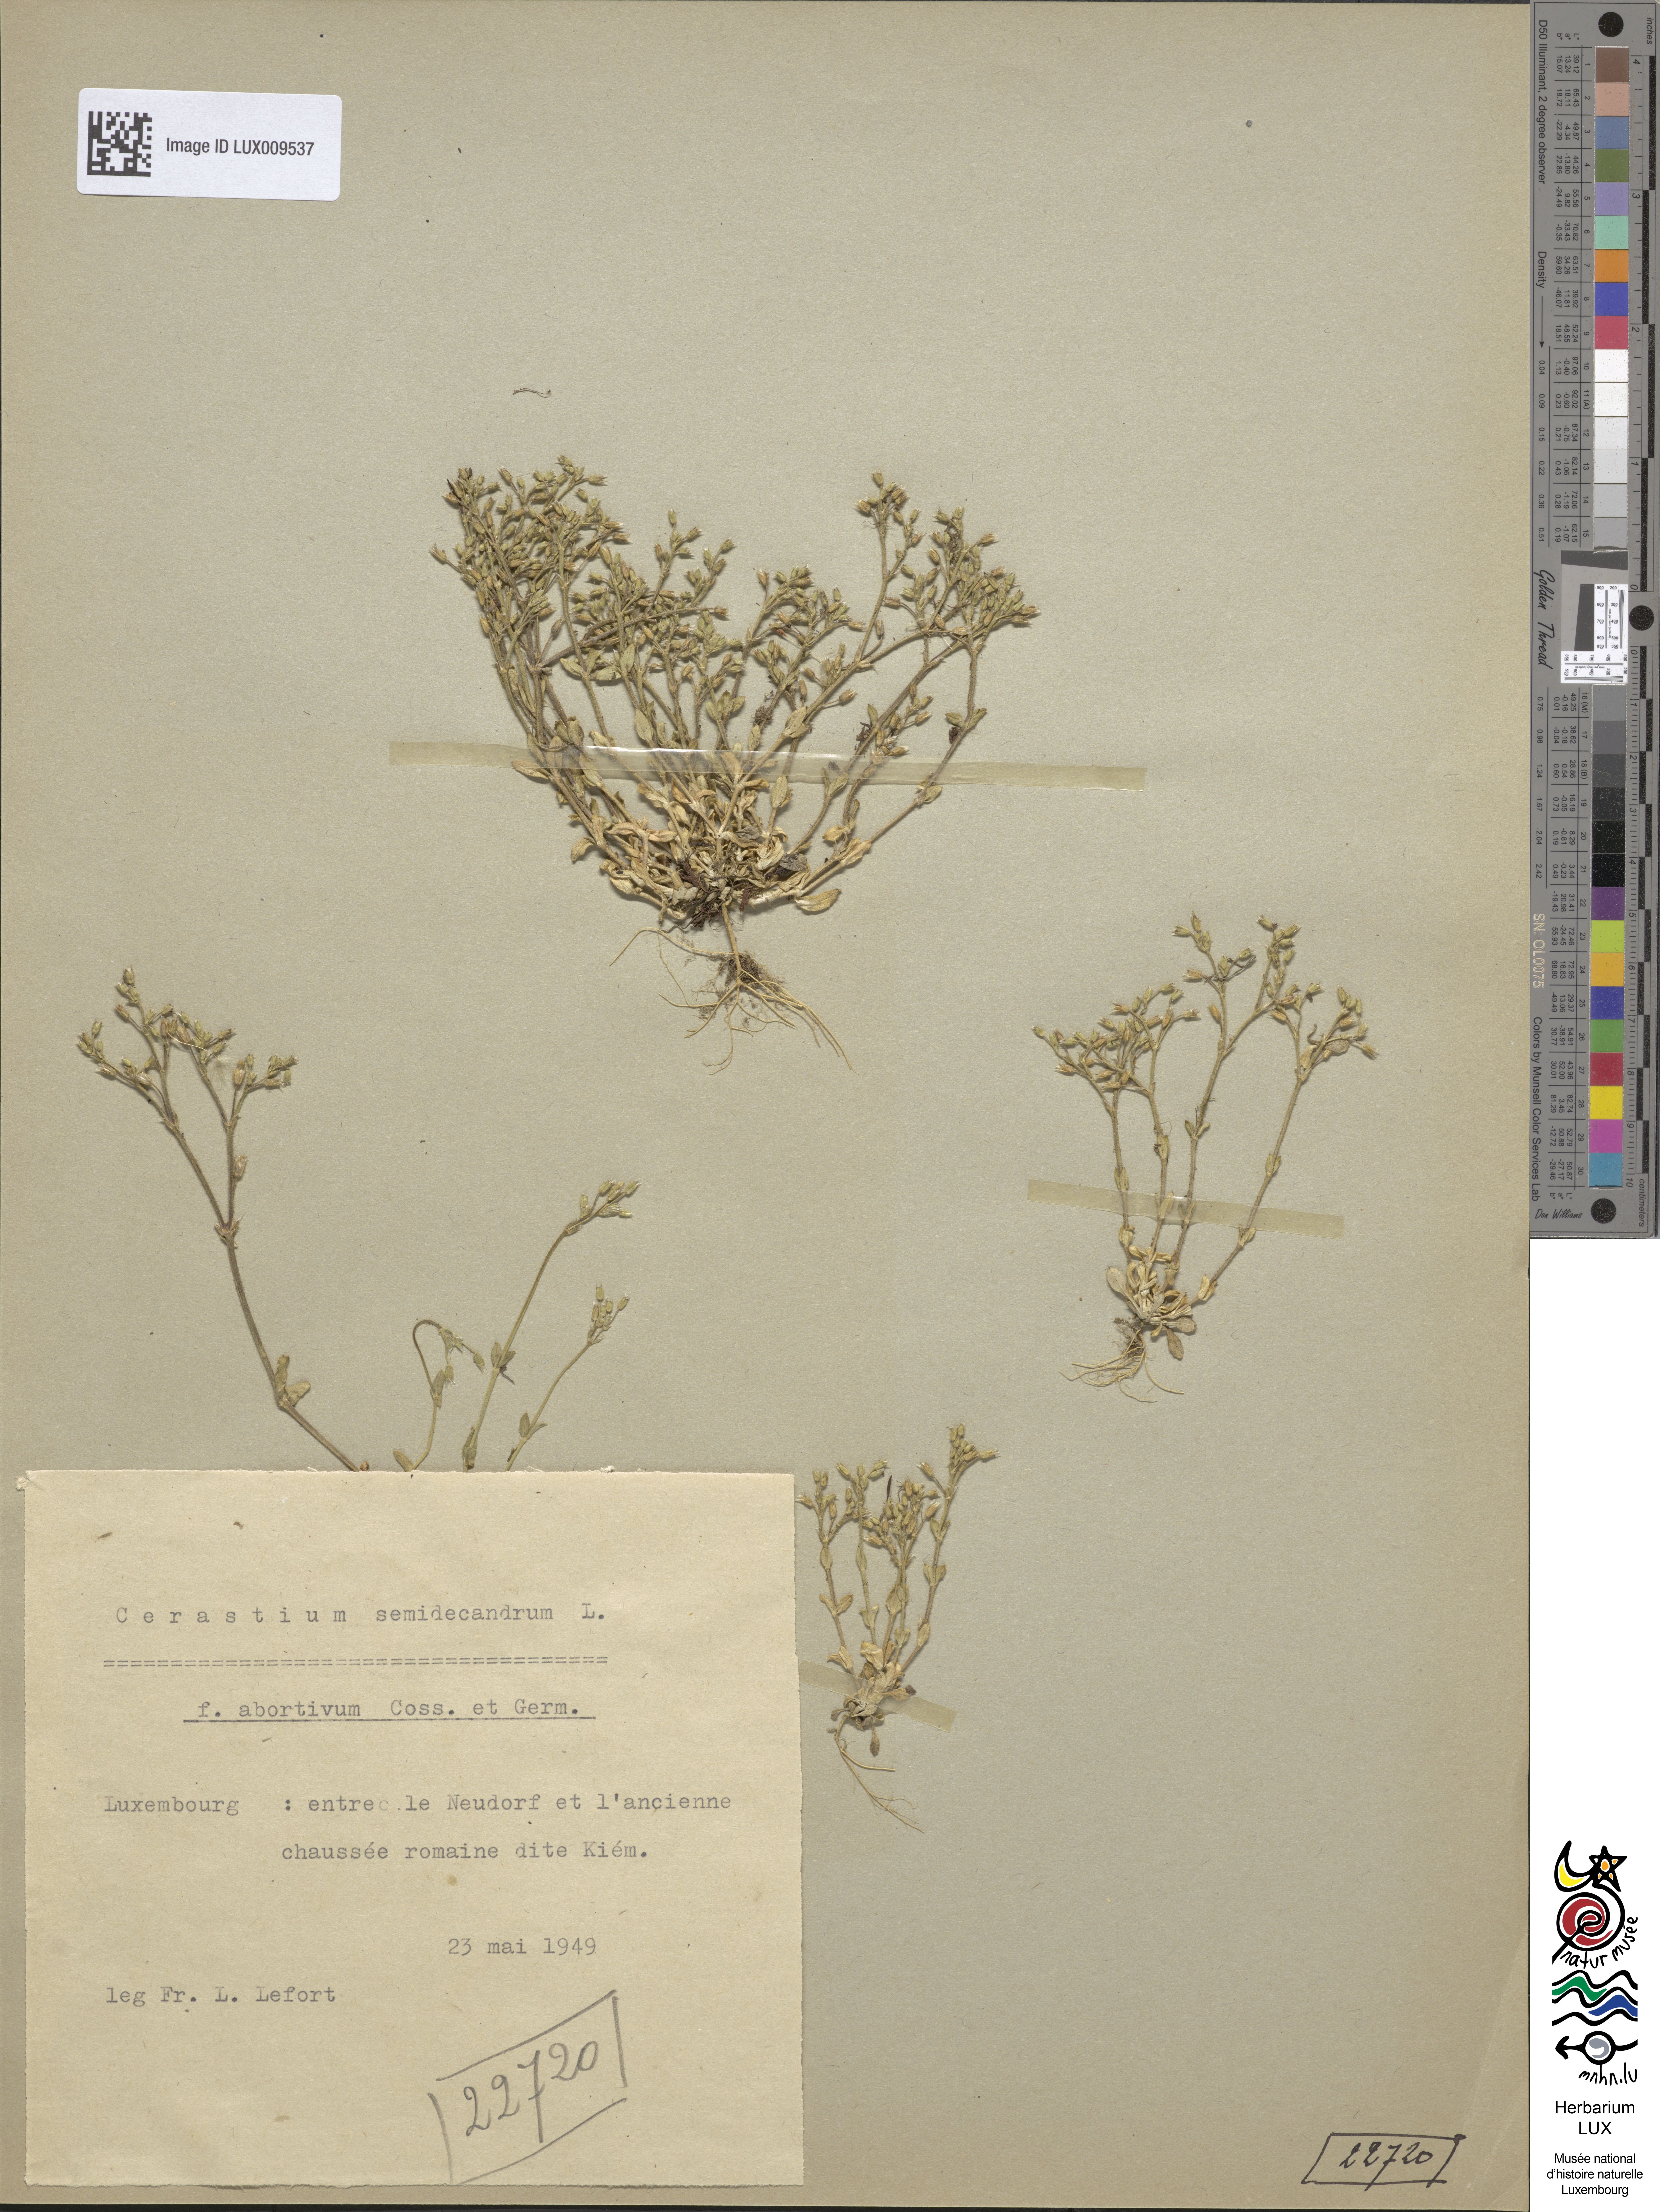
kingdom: Plantae
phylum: Tracheophyta
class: Magnoliopsida
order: Caryophyllales
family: Caryophyllaceae
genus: Cerastium
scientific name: Cerastium semidecandrum
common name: Little mouse-ear
